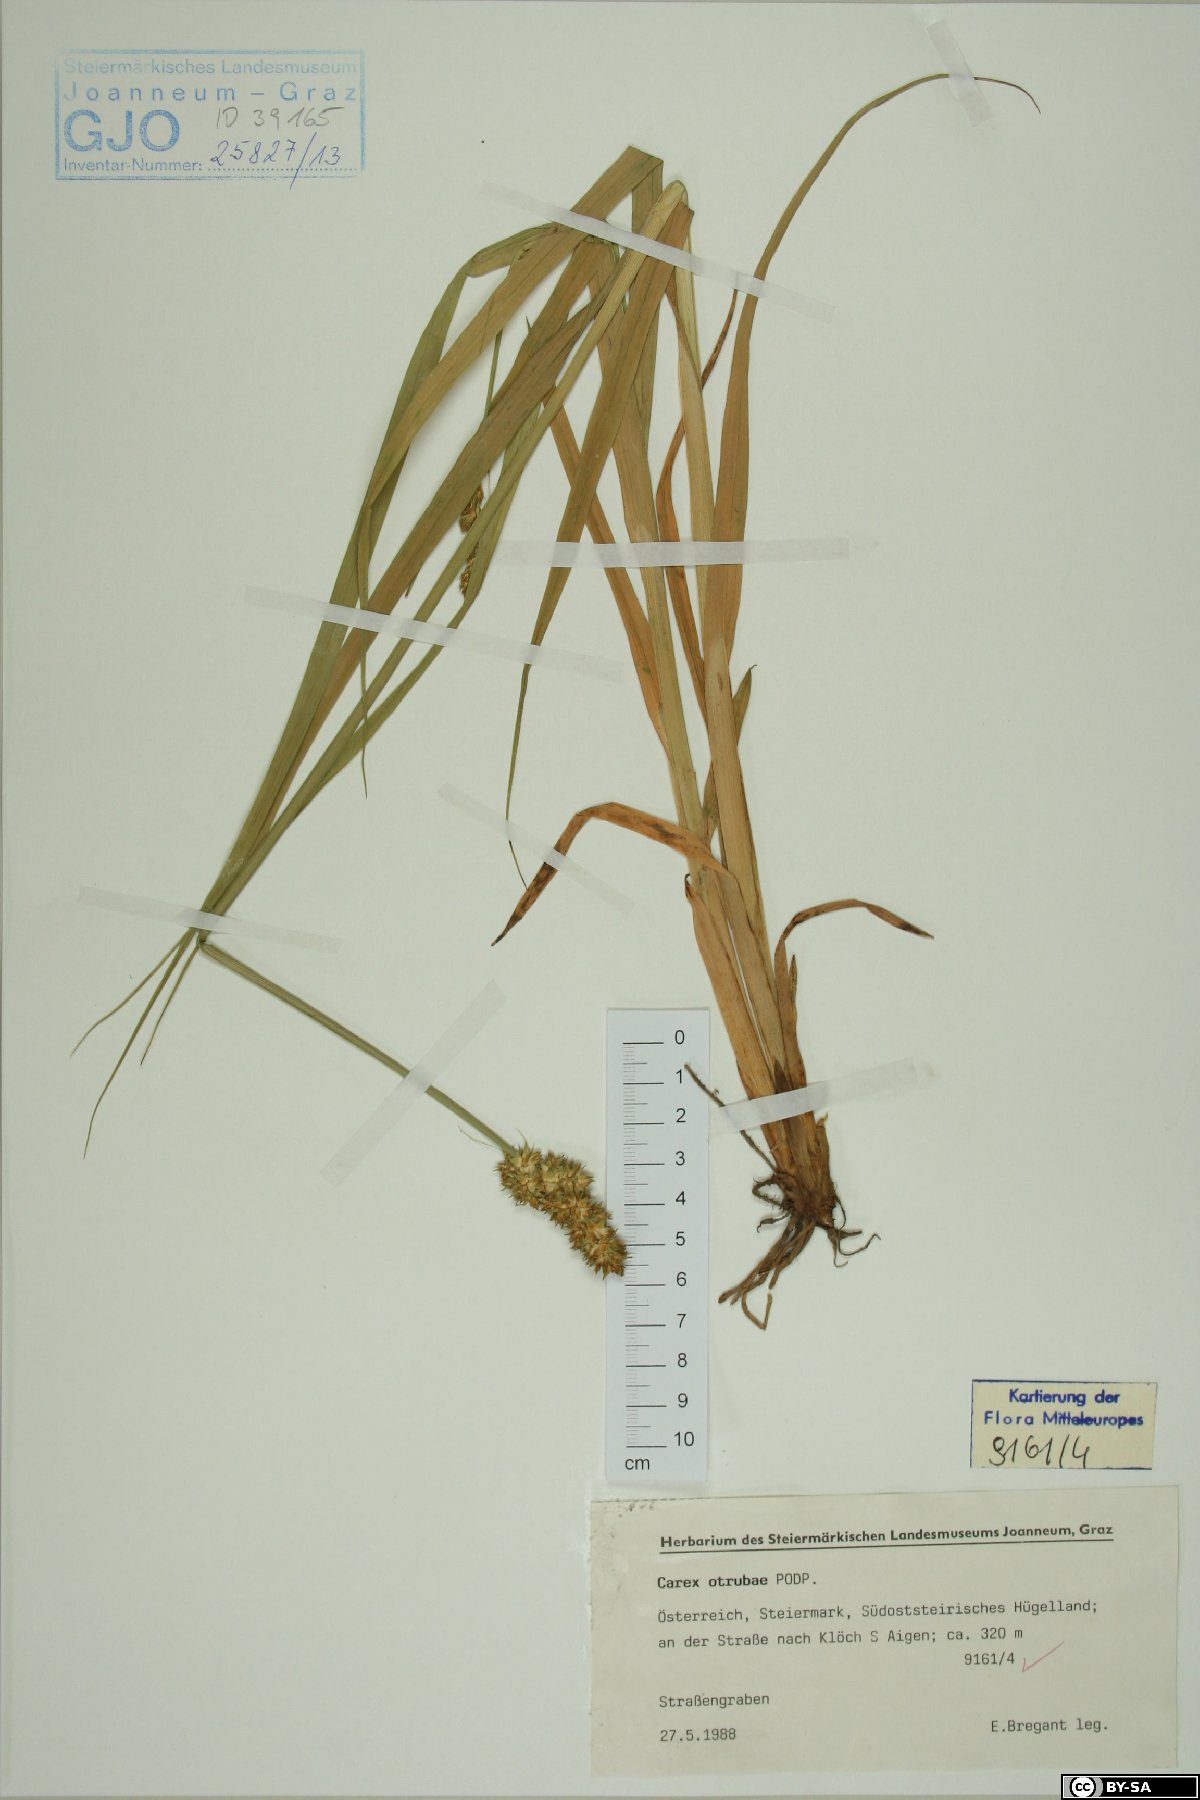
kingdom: Plantae
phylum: Tracheophyta
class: Liliopsida
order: Poales
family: Cyperaceae
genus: Carex
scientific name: Carex otrubae
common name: False fox-sedge
